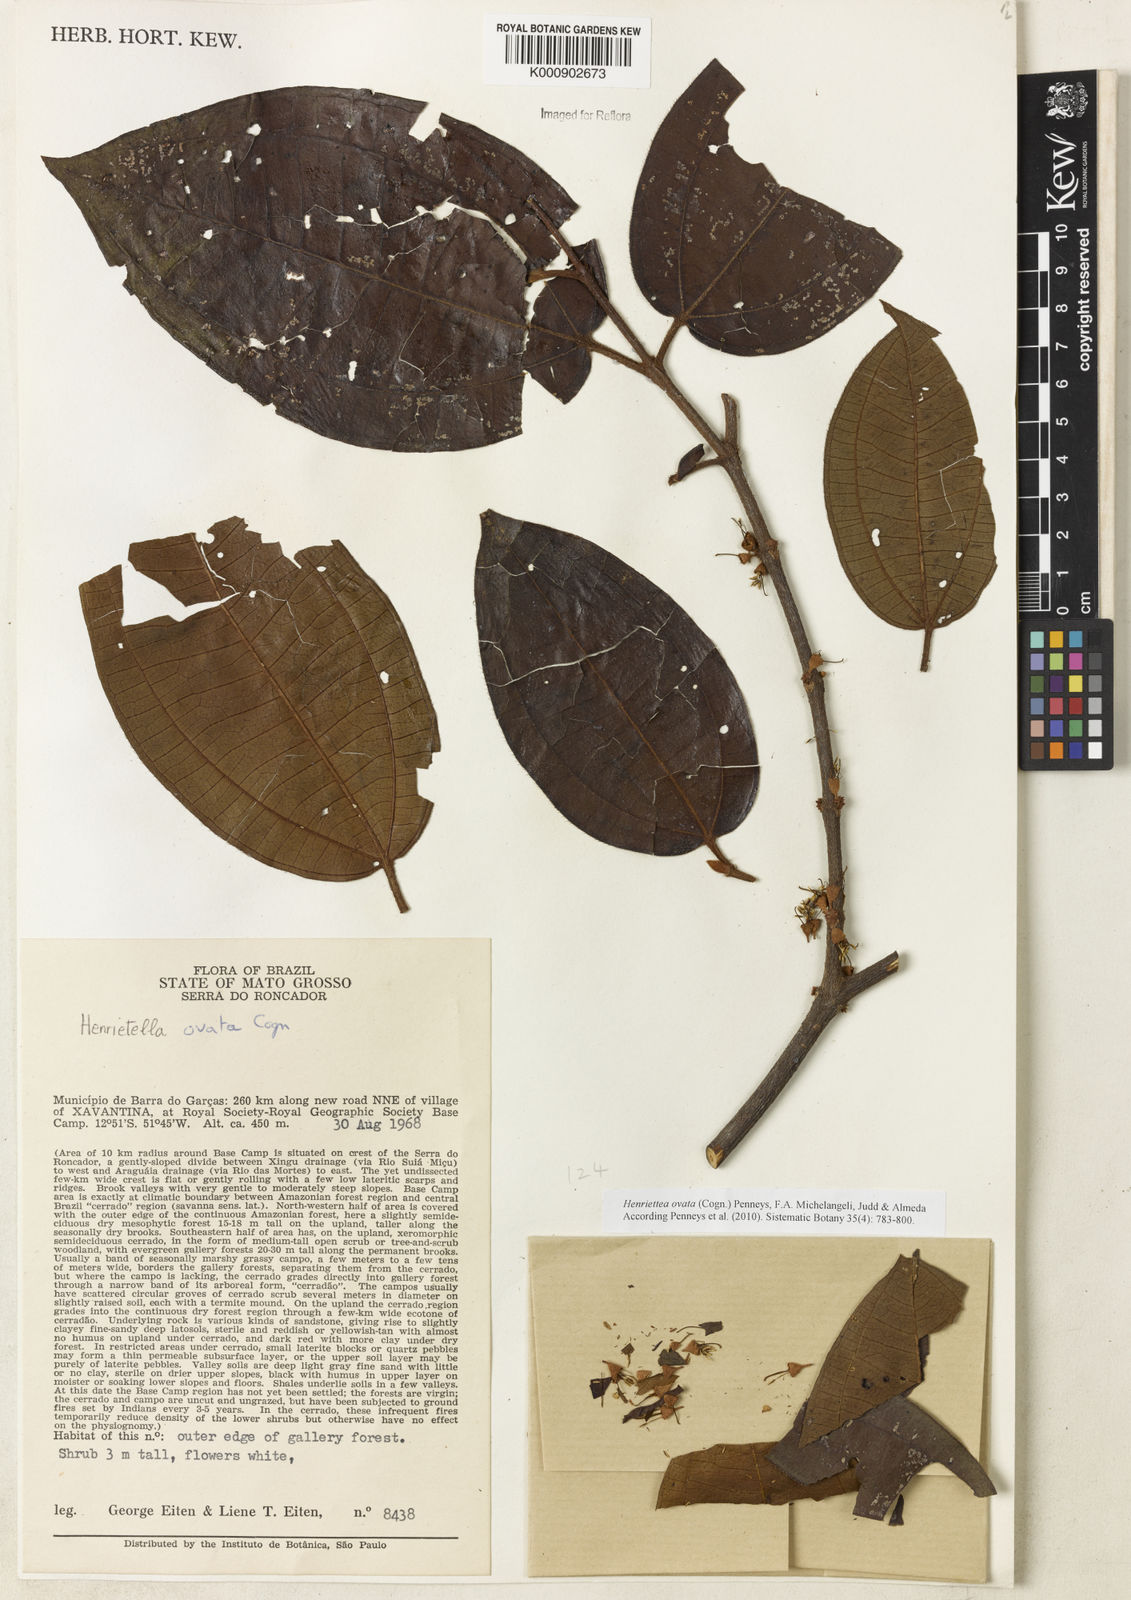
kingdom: Plantae
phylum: Tracheophyta
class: Magnoliopsida
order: Myrtales
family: Melastomataceae
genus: Henriettea
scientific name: Henriettea ovata
